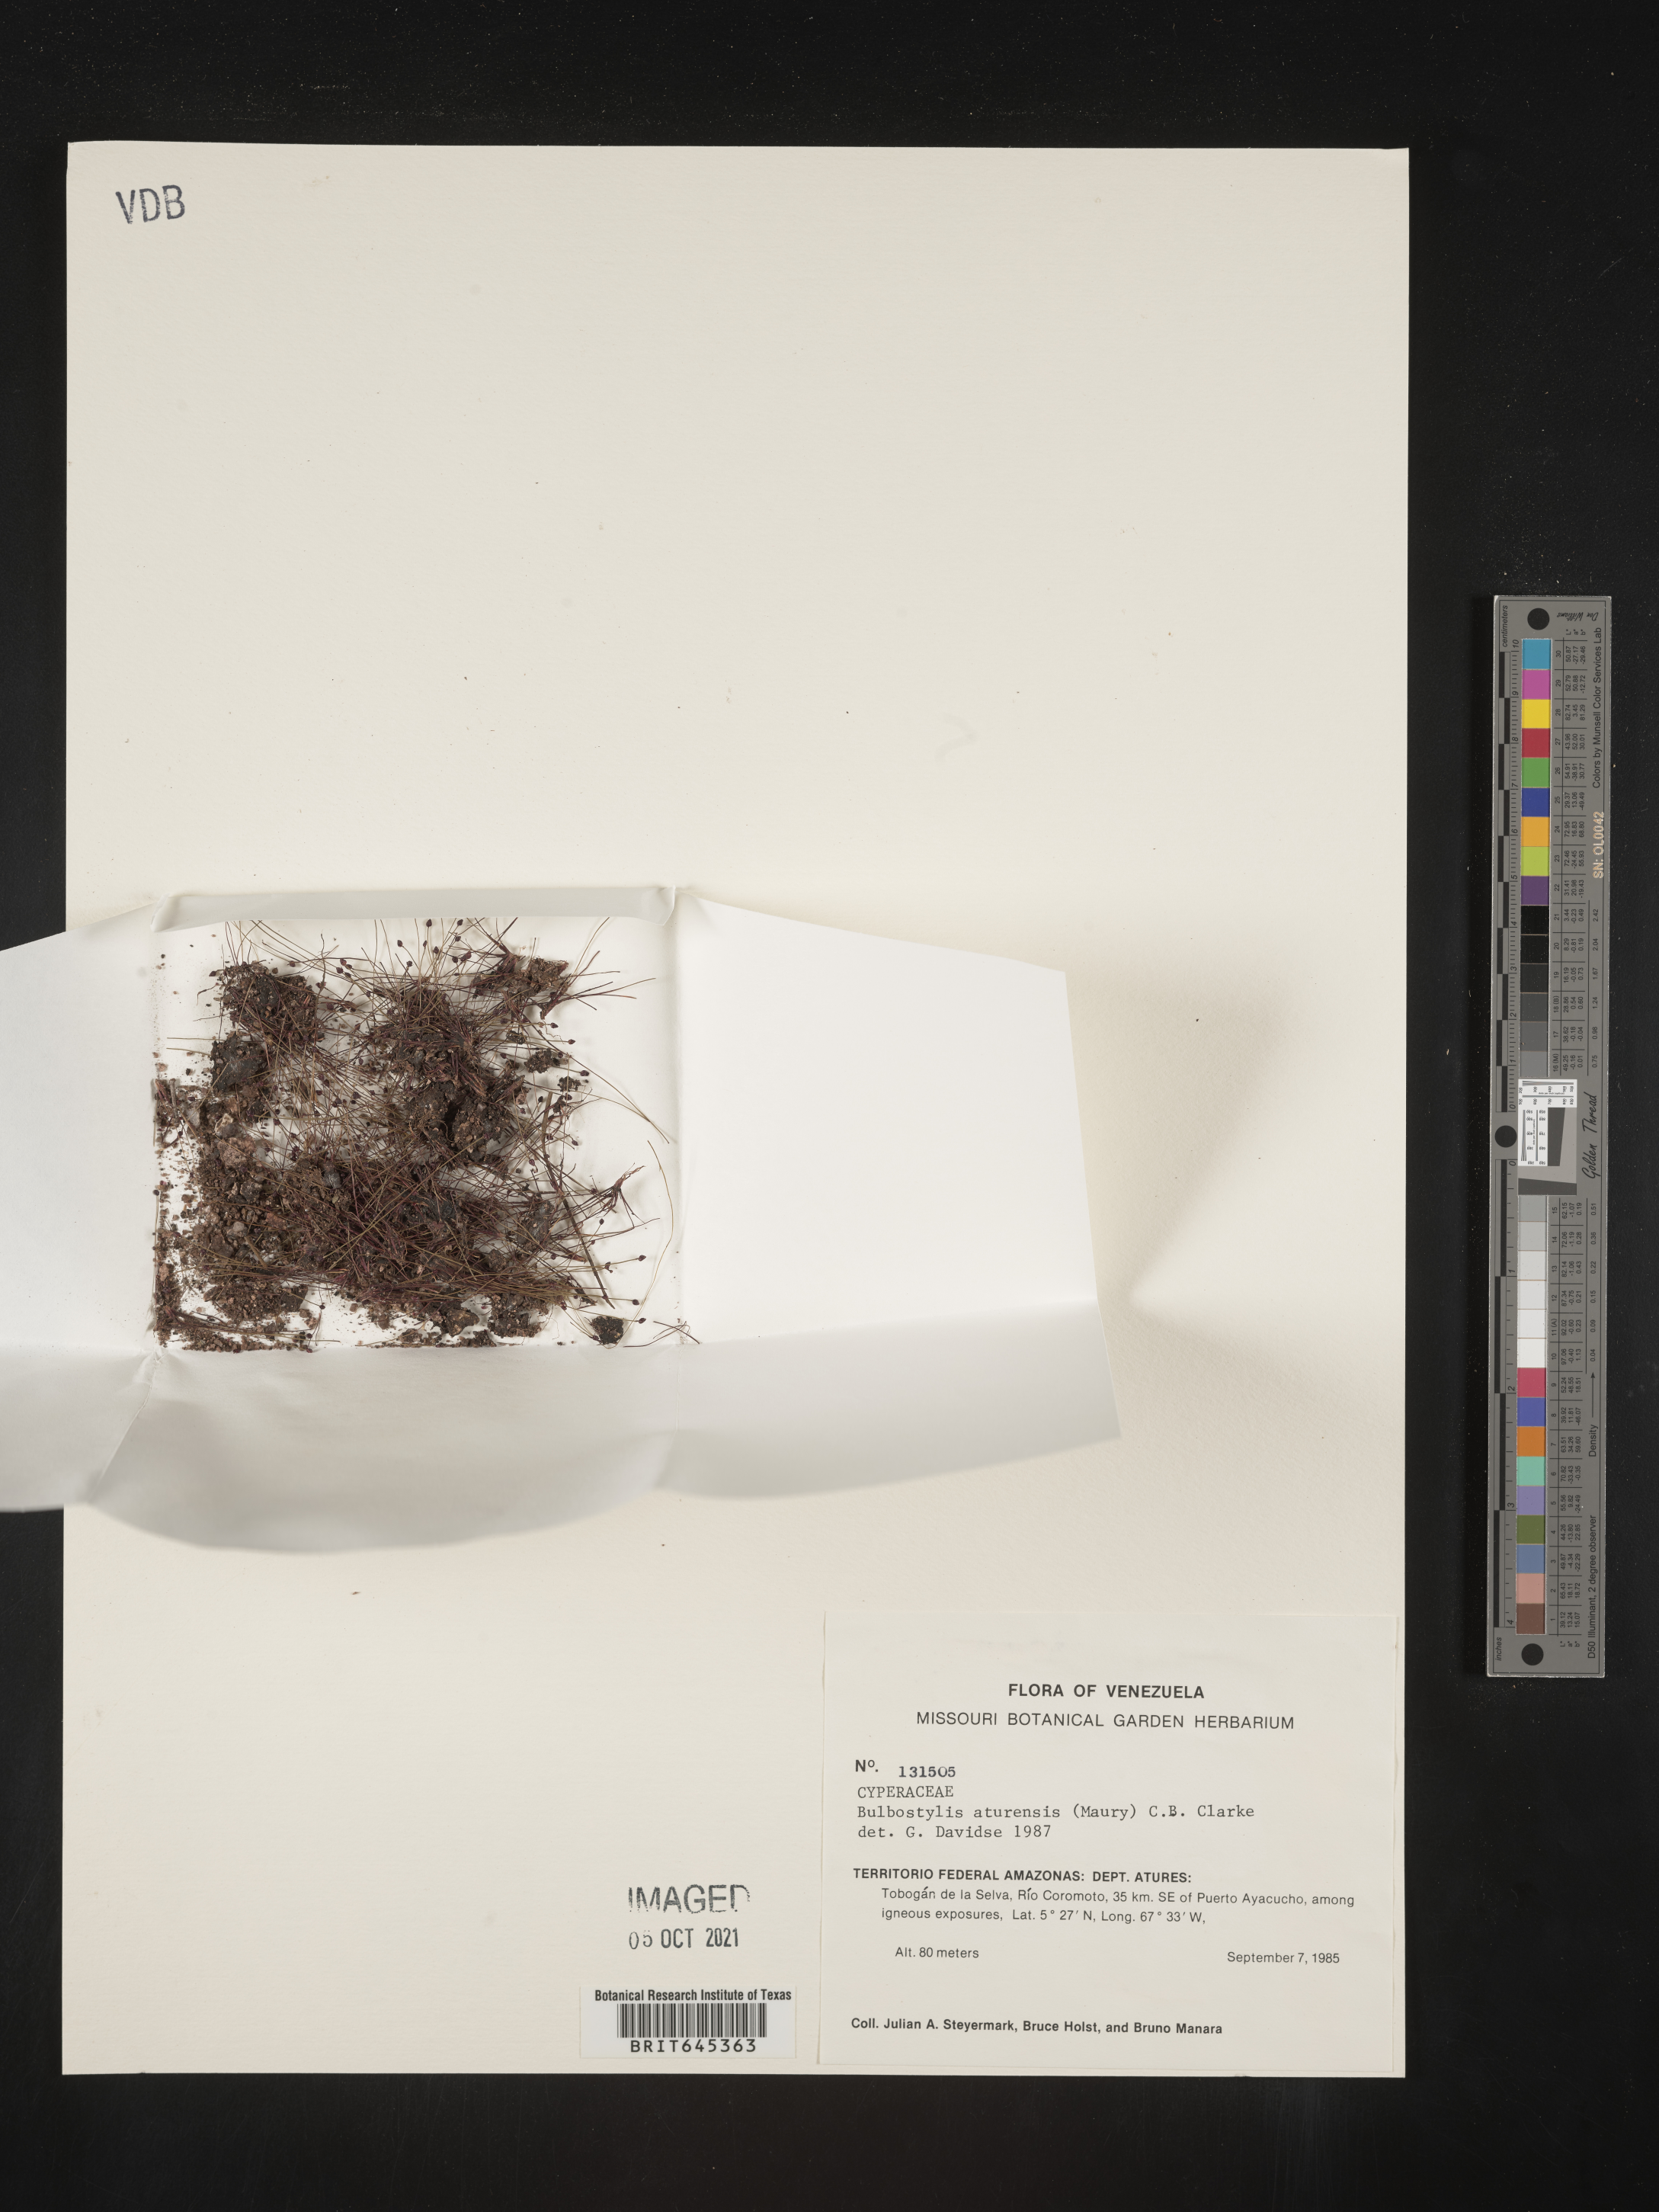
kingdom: Plantae
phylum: Tracheophyta
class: Liliopsida
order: Poales
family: Cyperaceae
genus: Bulbostylis
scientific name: Bulbostylis aturensis
